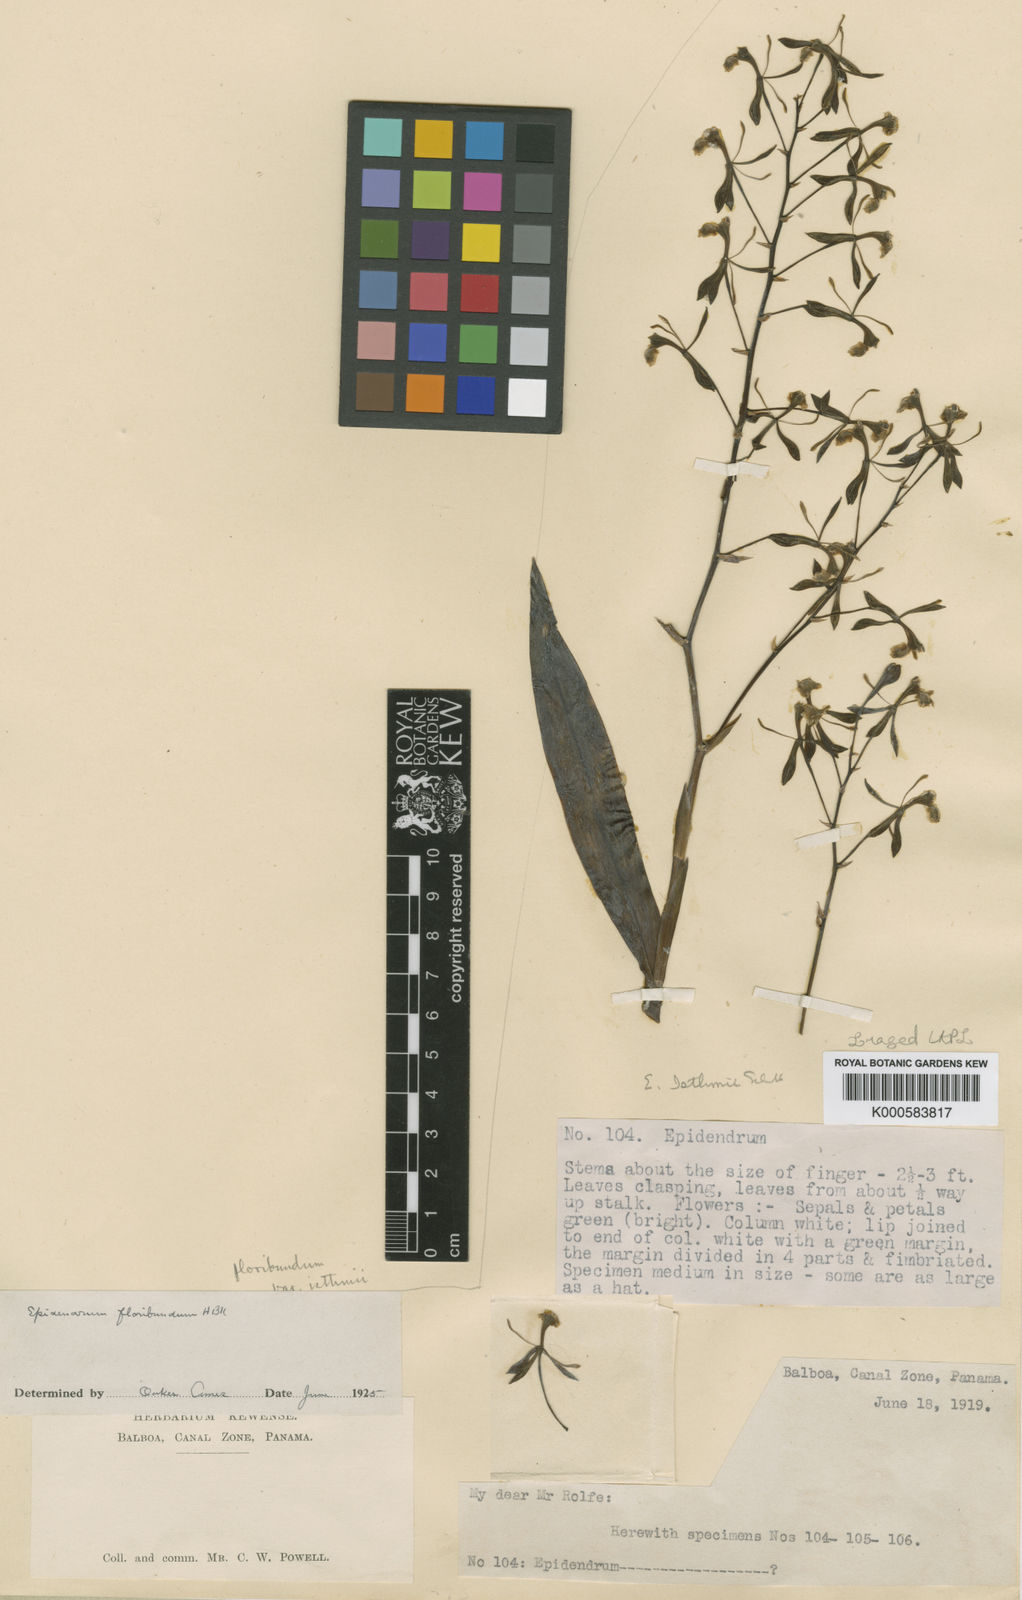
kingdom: Plantae
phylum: Tracheophyta
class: Liliopsida
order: Asparagales
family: Orchidaceae
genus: Epidendrum
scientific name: Epidendrum paniculatum
